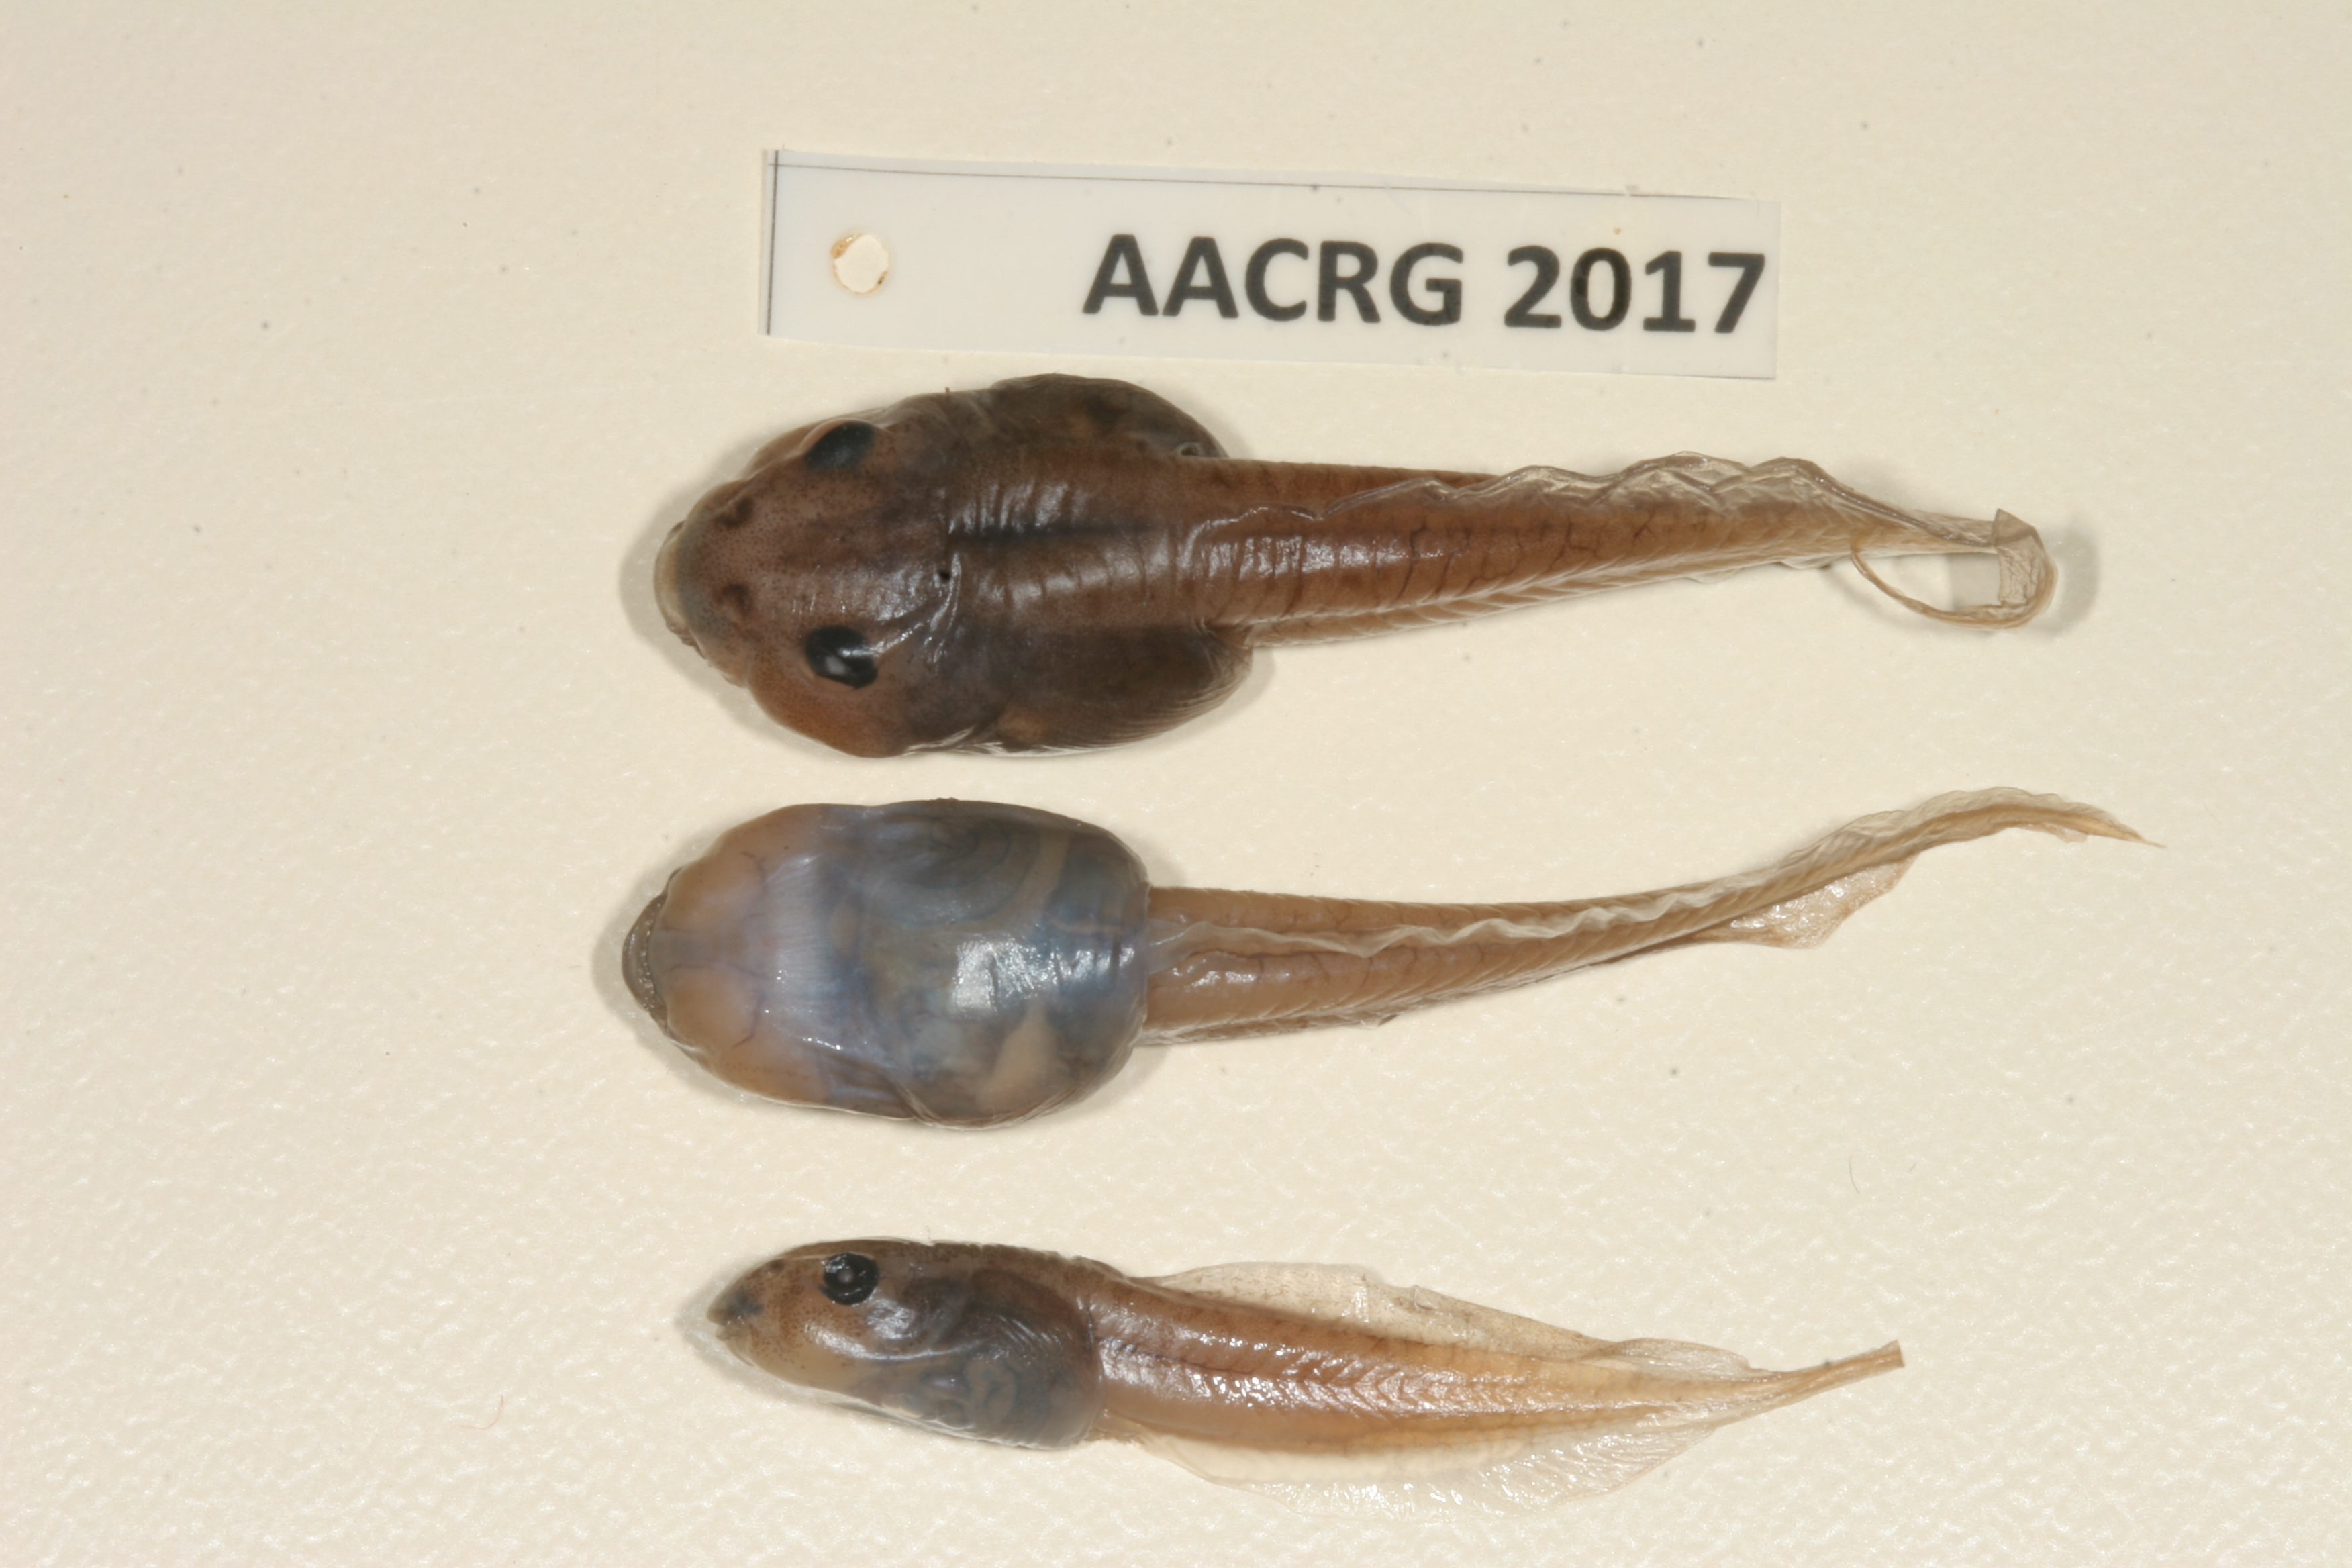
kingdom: Animalia
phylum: Chordata
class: Amphibia
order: Anura
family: Ptychadenidae
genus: Hildebrandtia
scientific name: Hildebrandtia ornata
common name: Ornate frog
